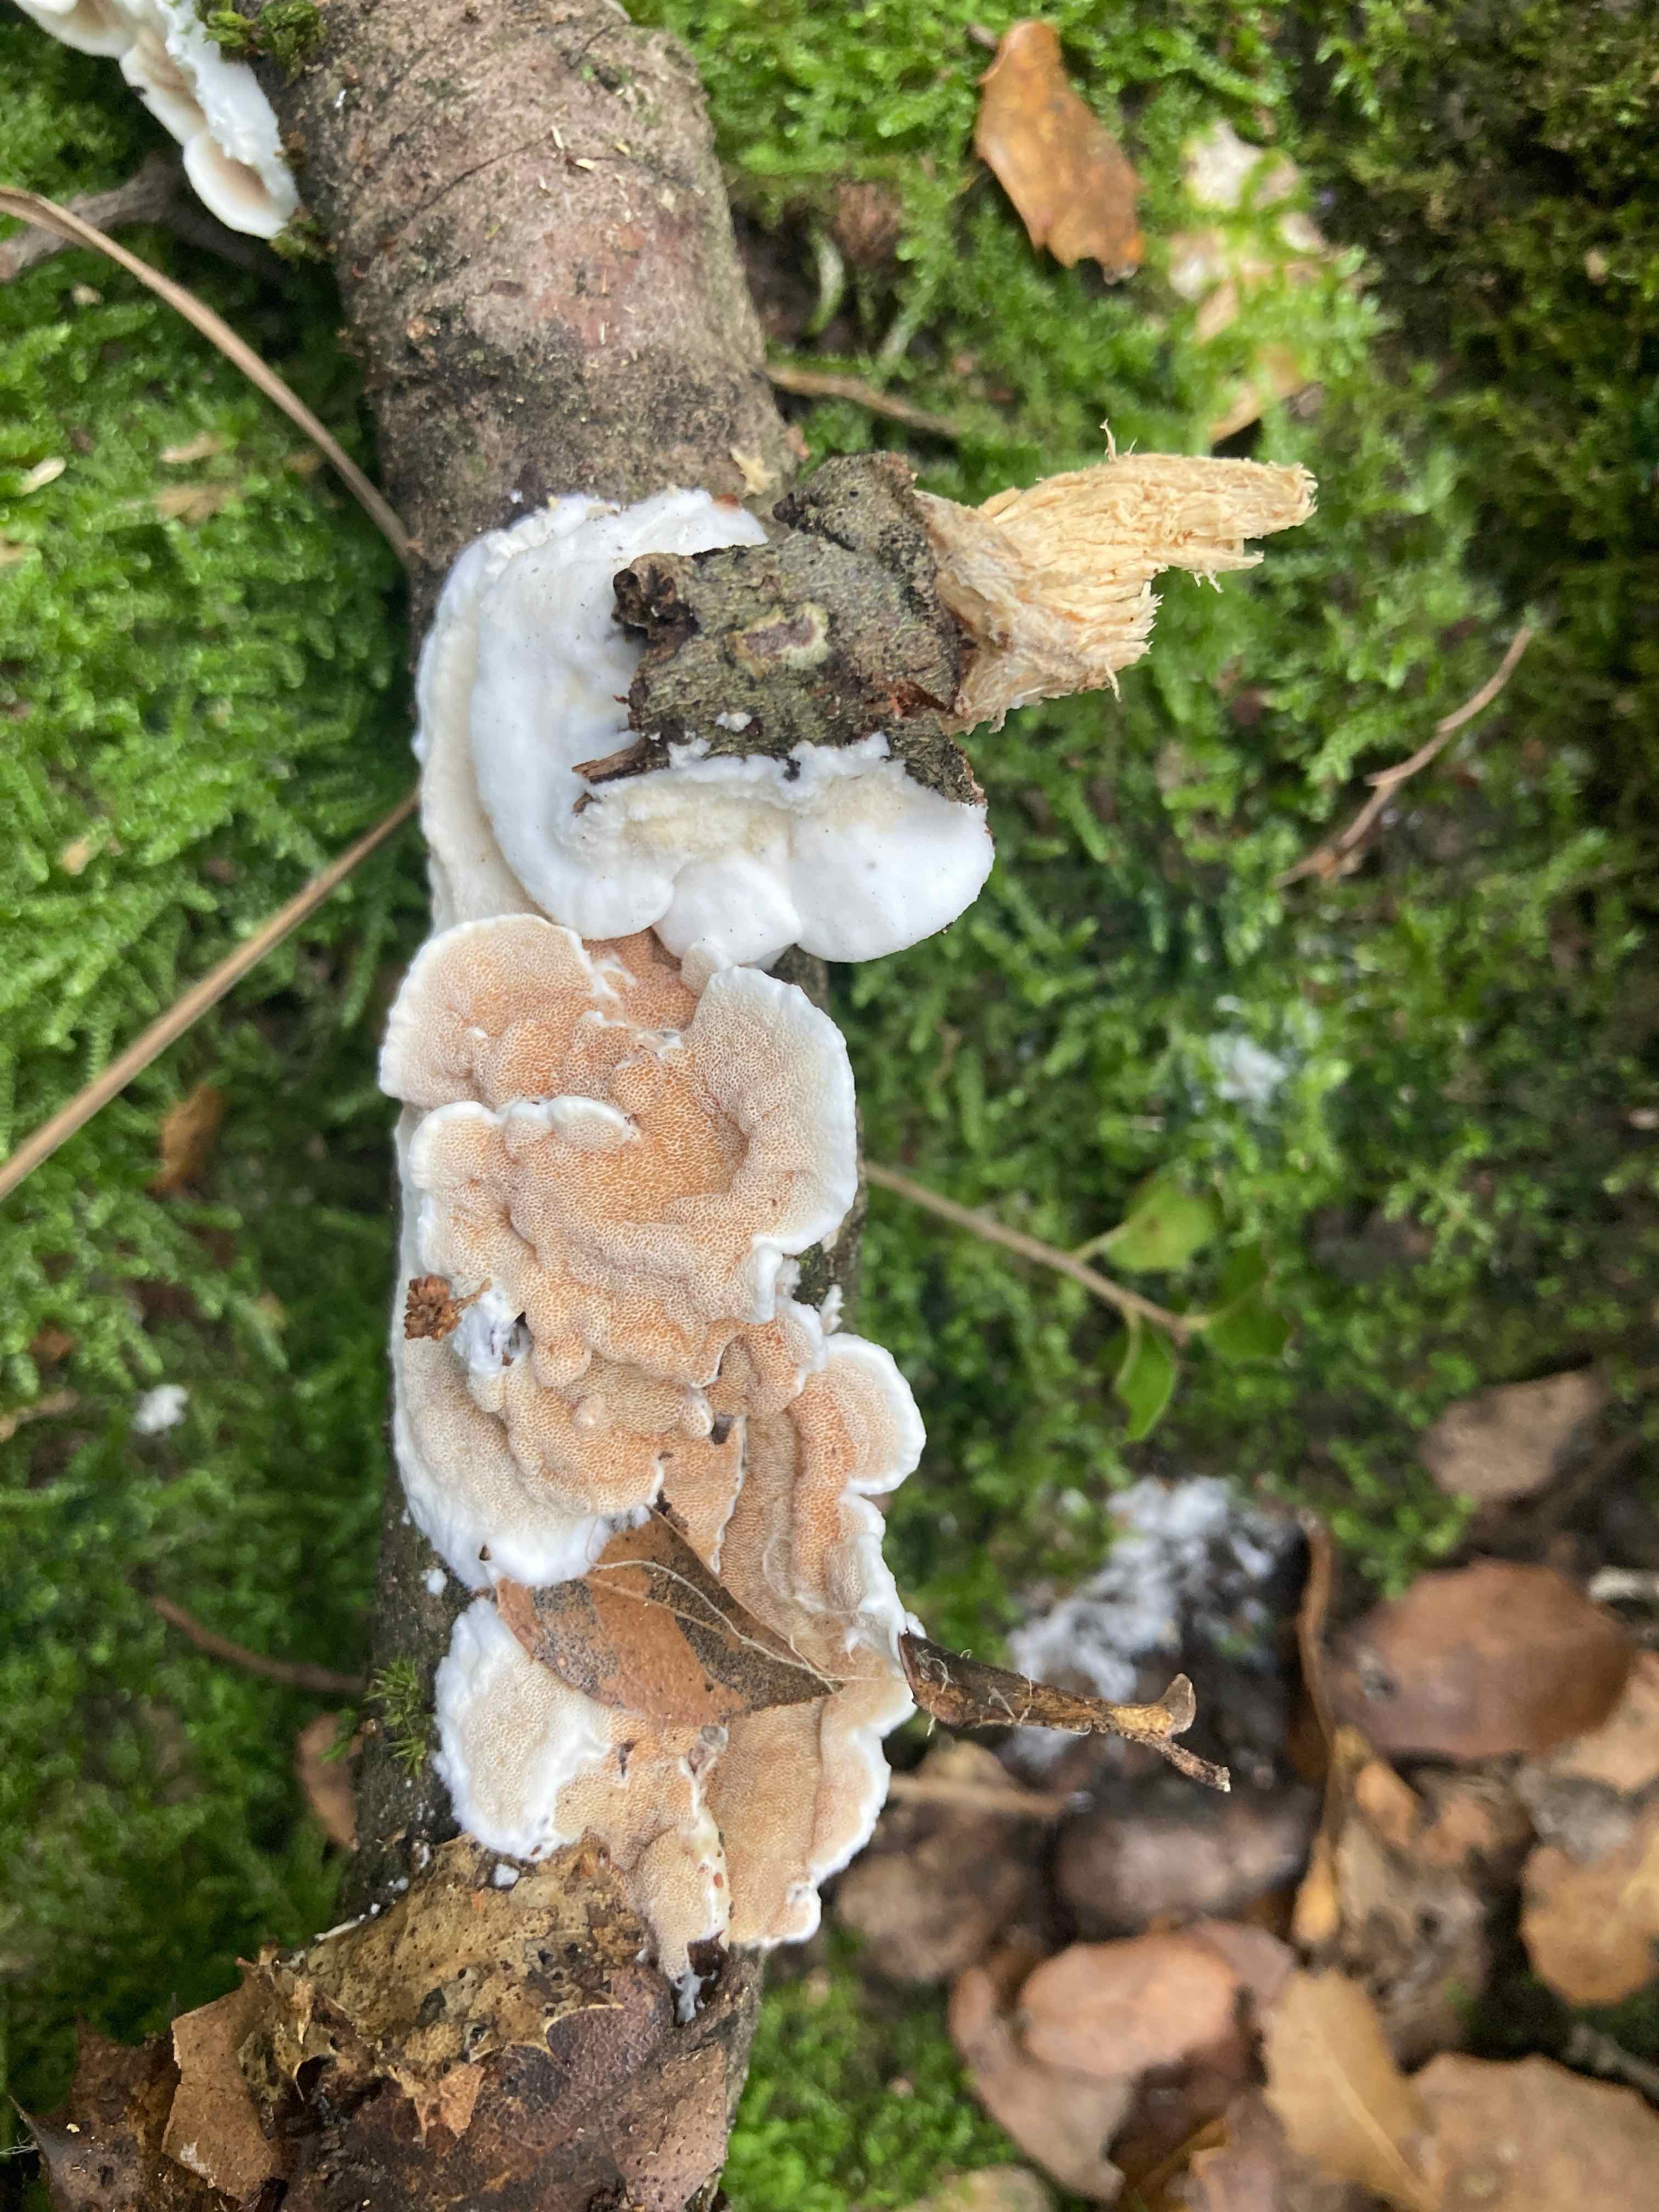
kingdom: Fungi
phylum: Basidiomycota
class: Agaricomycetes
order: Polyporales
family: Irpicaceae
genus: Vitreoporus
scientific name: Vitreoporus dichrous
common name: tofarvet foldporesvamp
